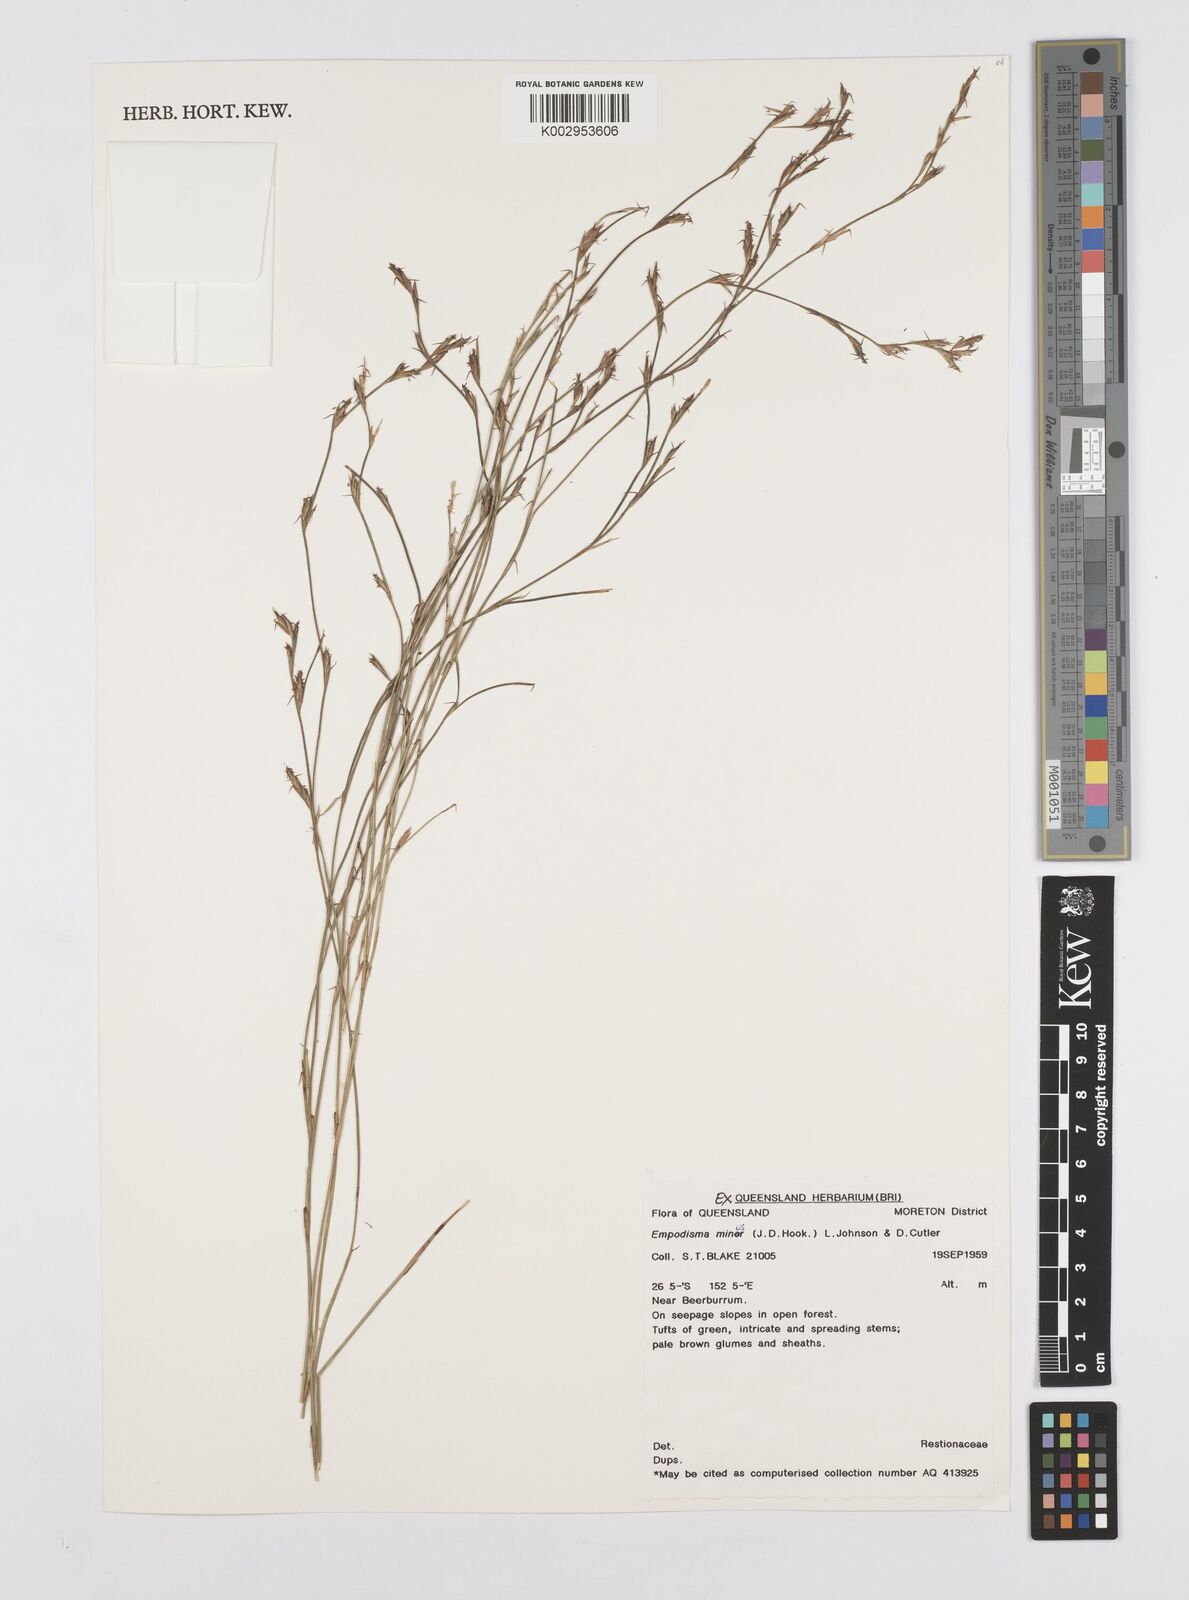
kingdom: Plantae
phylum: Tracheophyta
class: Liliopsida
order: Poales
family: Restionaceae
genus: Empodisma
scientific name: Empodisma minus
